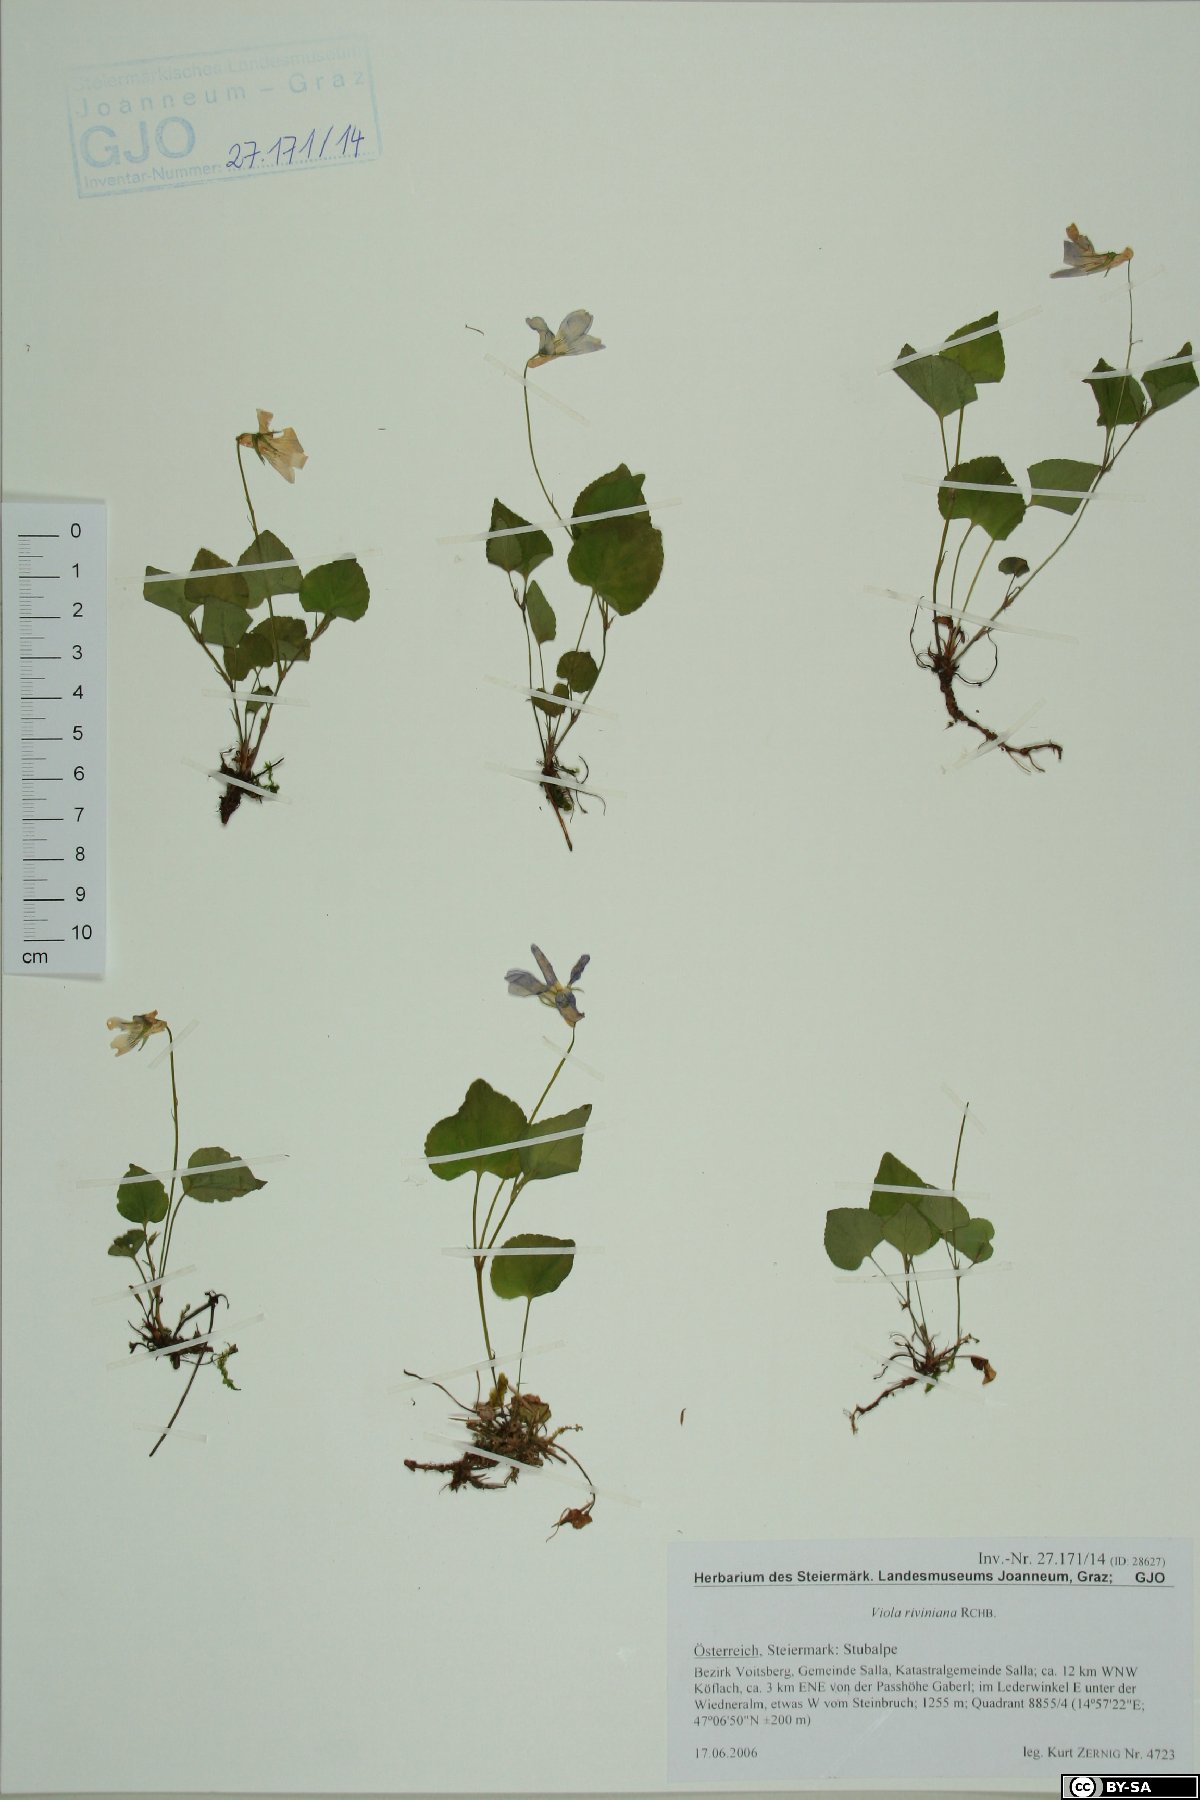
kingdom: Plantae
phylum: Tracheophyta
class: Magnoliopsida
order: Malpighiales
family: Violaceae
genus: Viola
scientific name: Viola riviniana
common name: Common dog-violet
